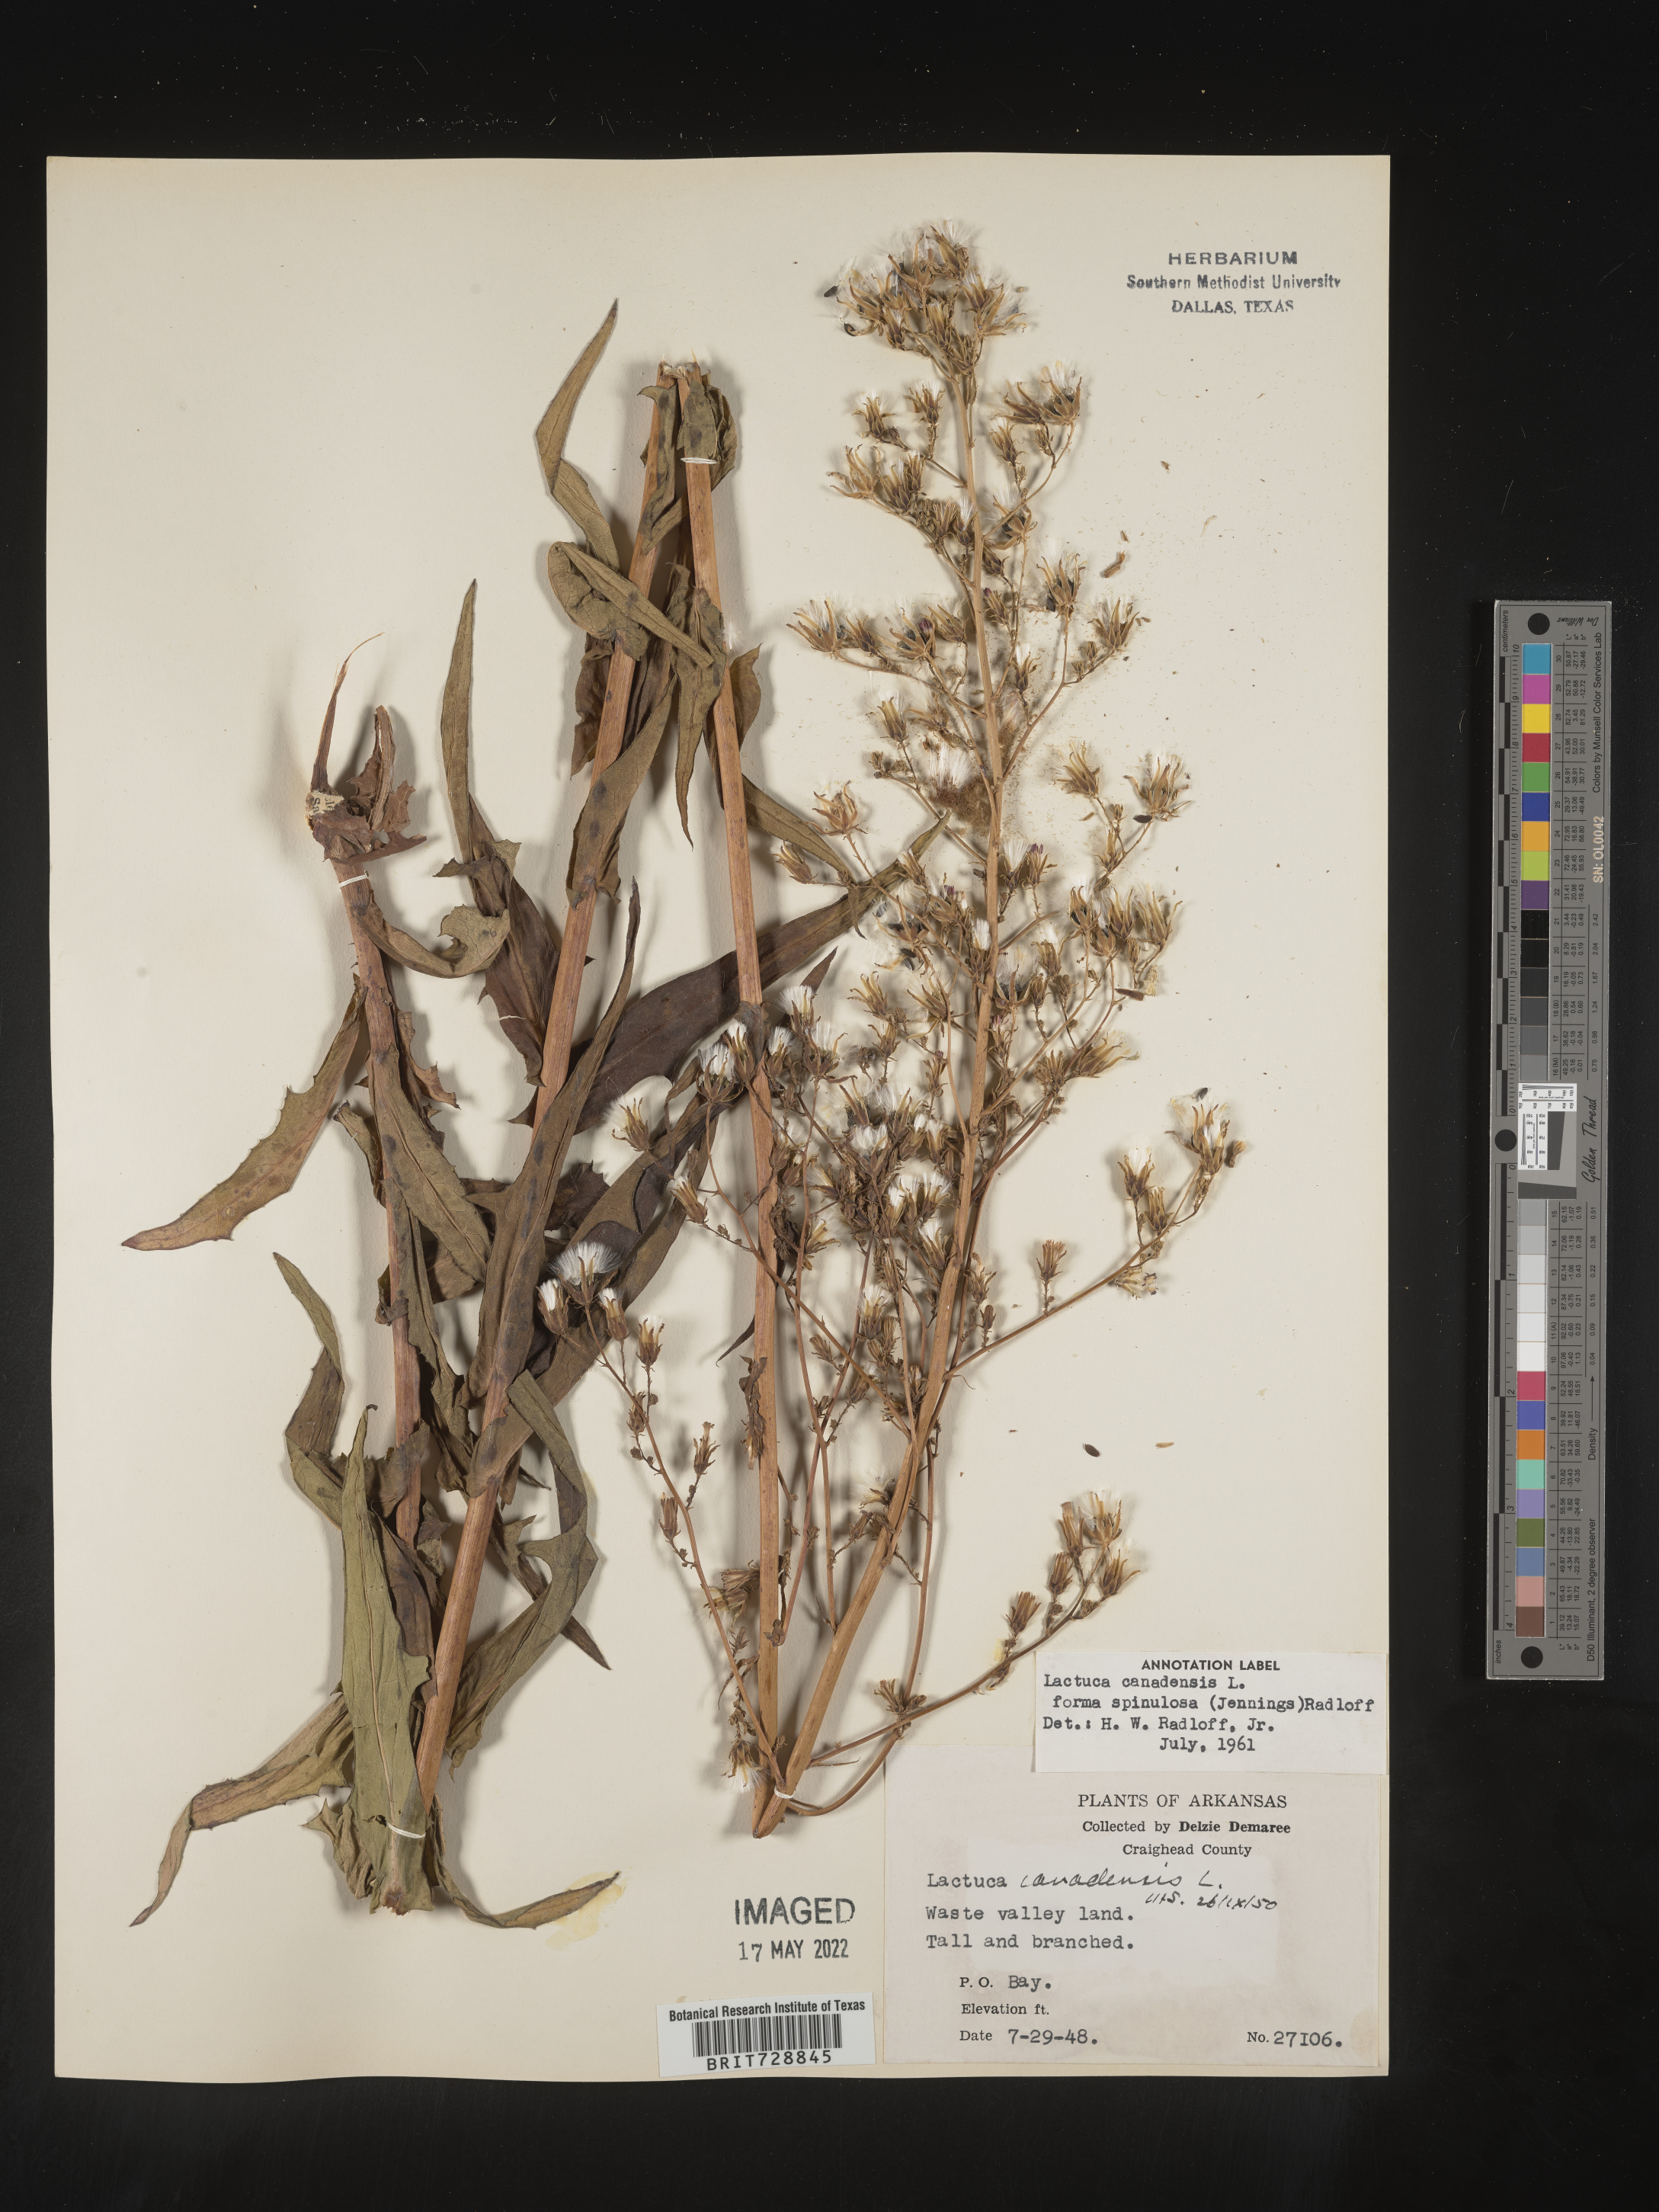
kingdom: Plantae
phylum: Tracheophyta
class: Magnoliopsida
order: Asterales
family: Asteraceae
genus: Lactuca
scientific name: Lactuca canadensis
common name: Canada lettuce
